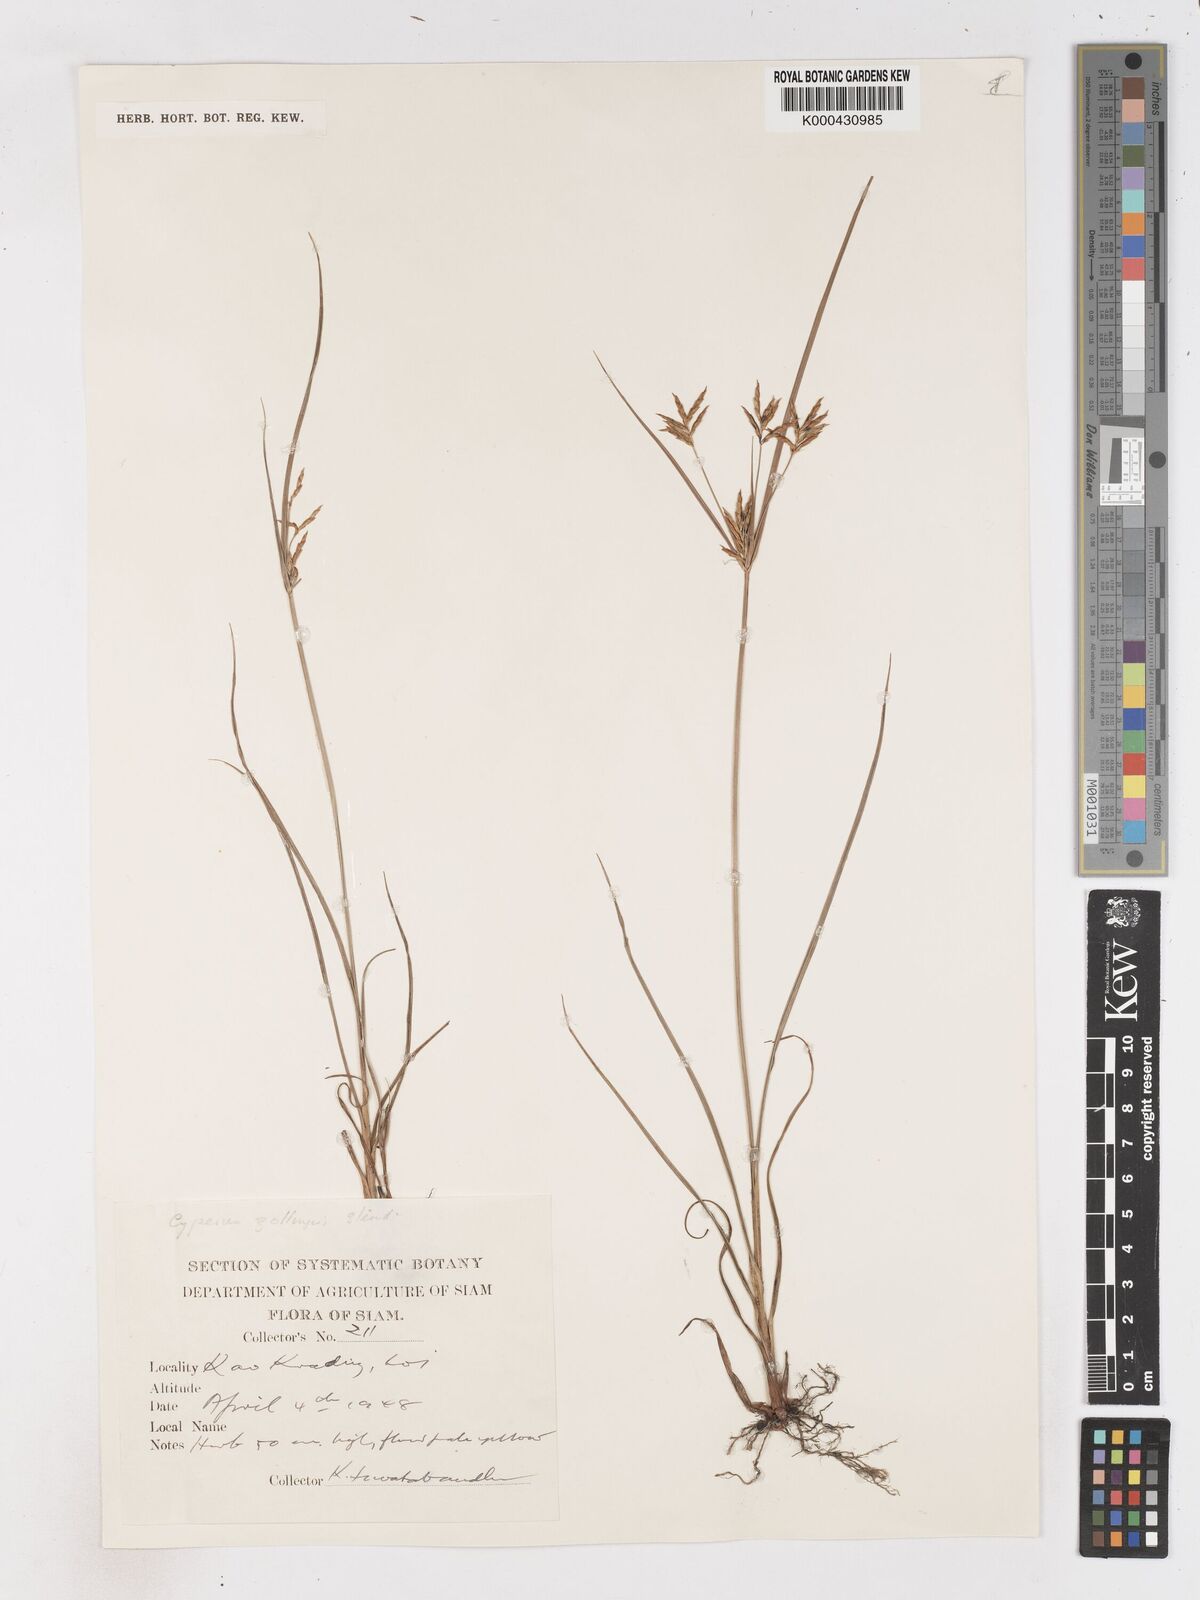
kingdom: Plantae
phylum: Tracheophyta
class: Liliopsida
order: Poales
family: Cyperaceae
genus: Cyperus
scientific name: Cyperus tenuiculmis
